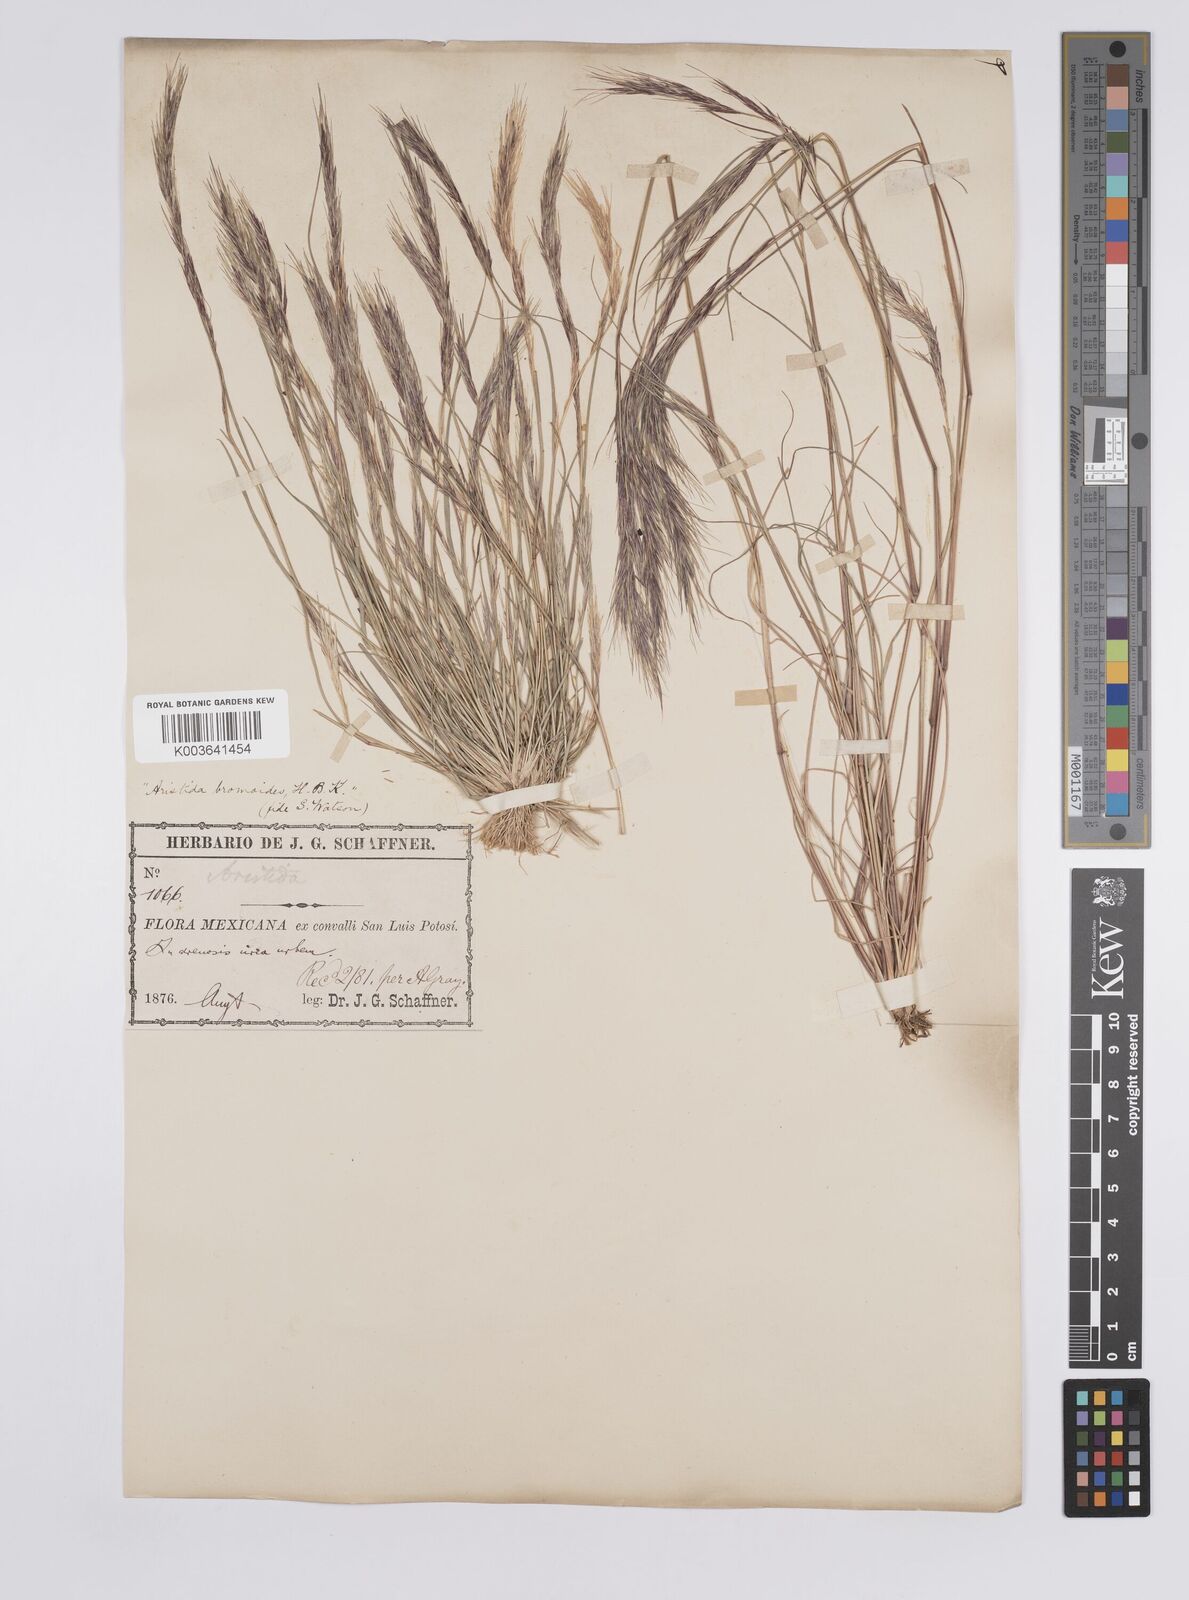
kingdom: Plantae
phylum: Tracheophyta
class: Liliopsida
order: Poales
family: Poaceae
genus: Aristida
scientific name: Aristida adscensionis
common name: Sixweeks threeawn
